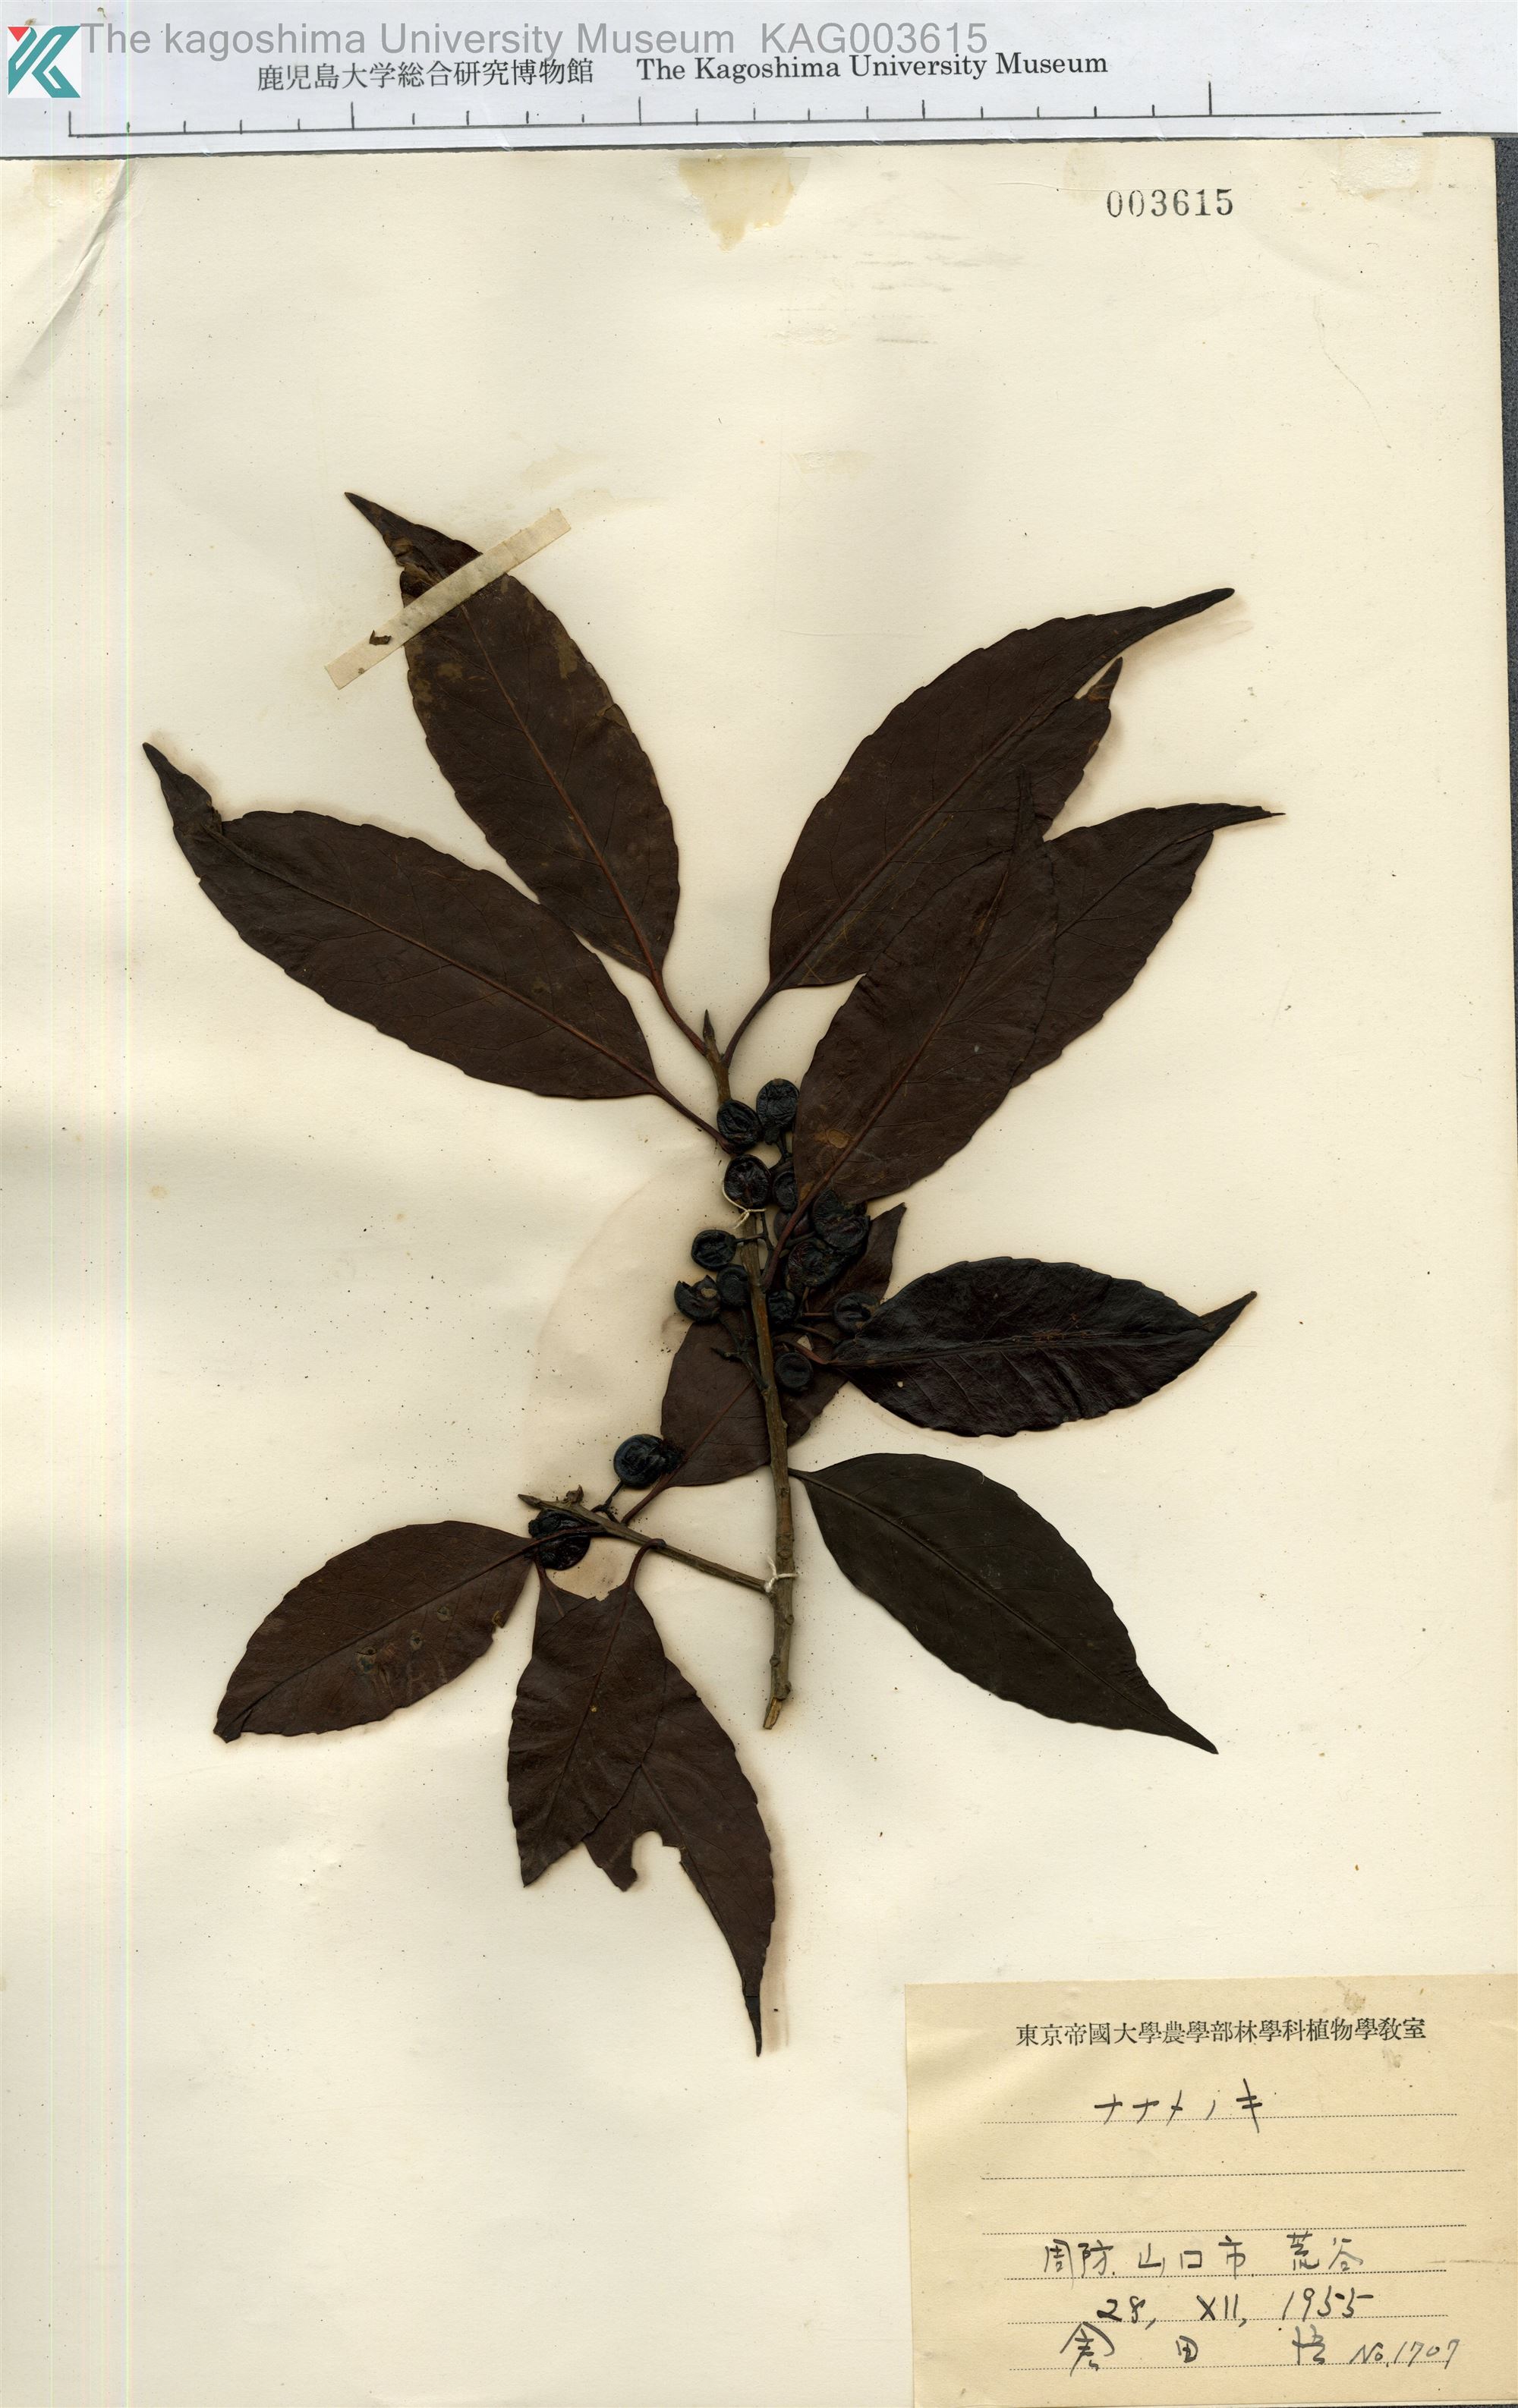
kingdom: Plantae
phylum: Tracheophyta
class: Magnoliopsida
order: Aquifoliales
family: Aquifoliaceae
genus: Ilex
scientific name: Ilex chinensis
